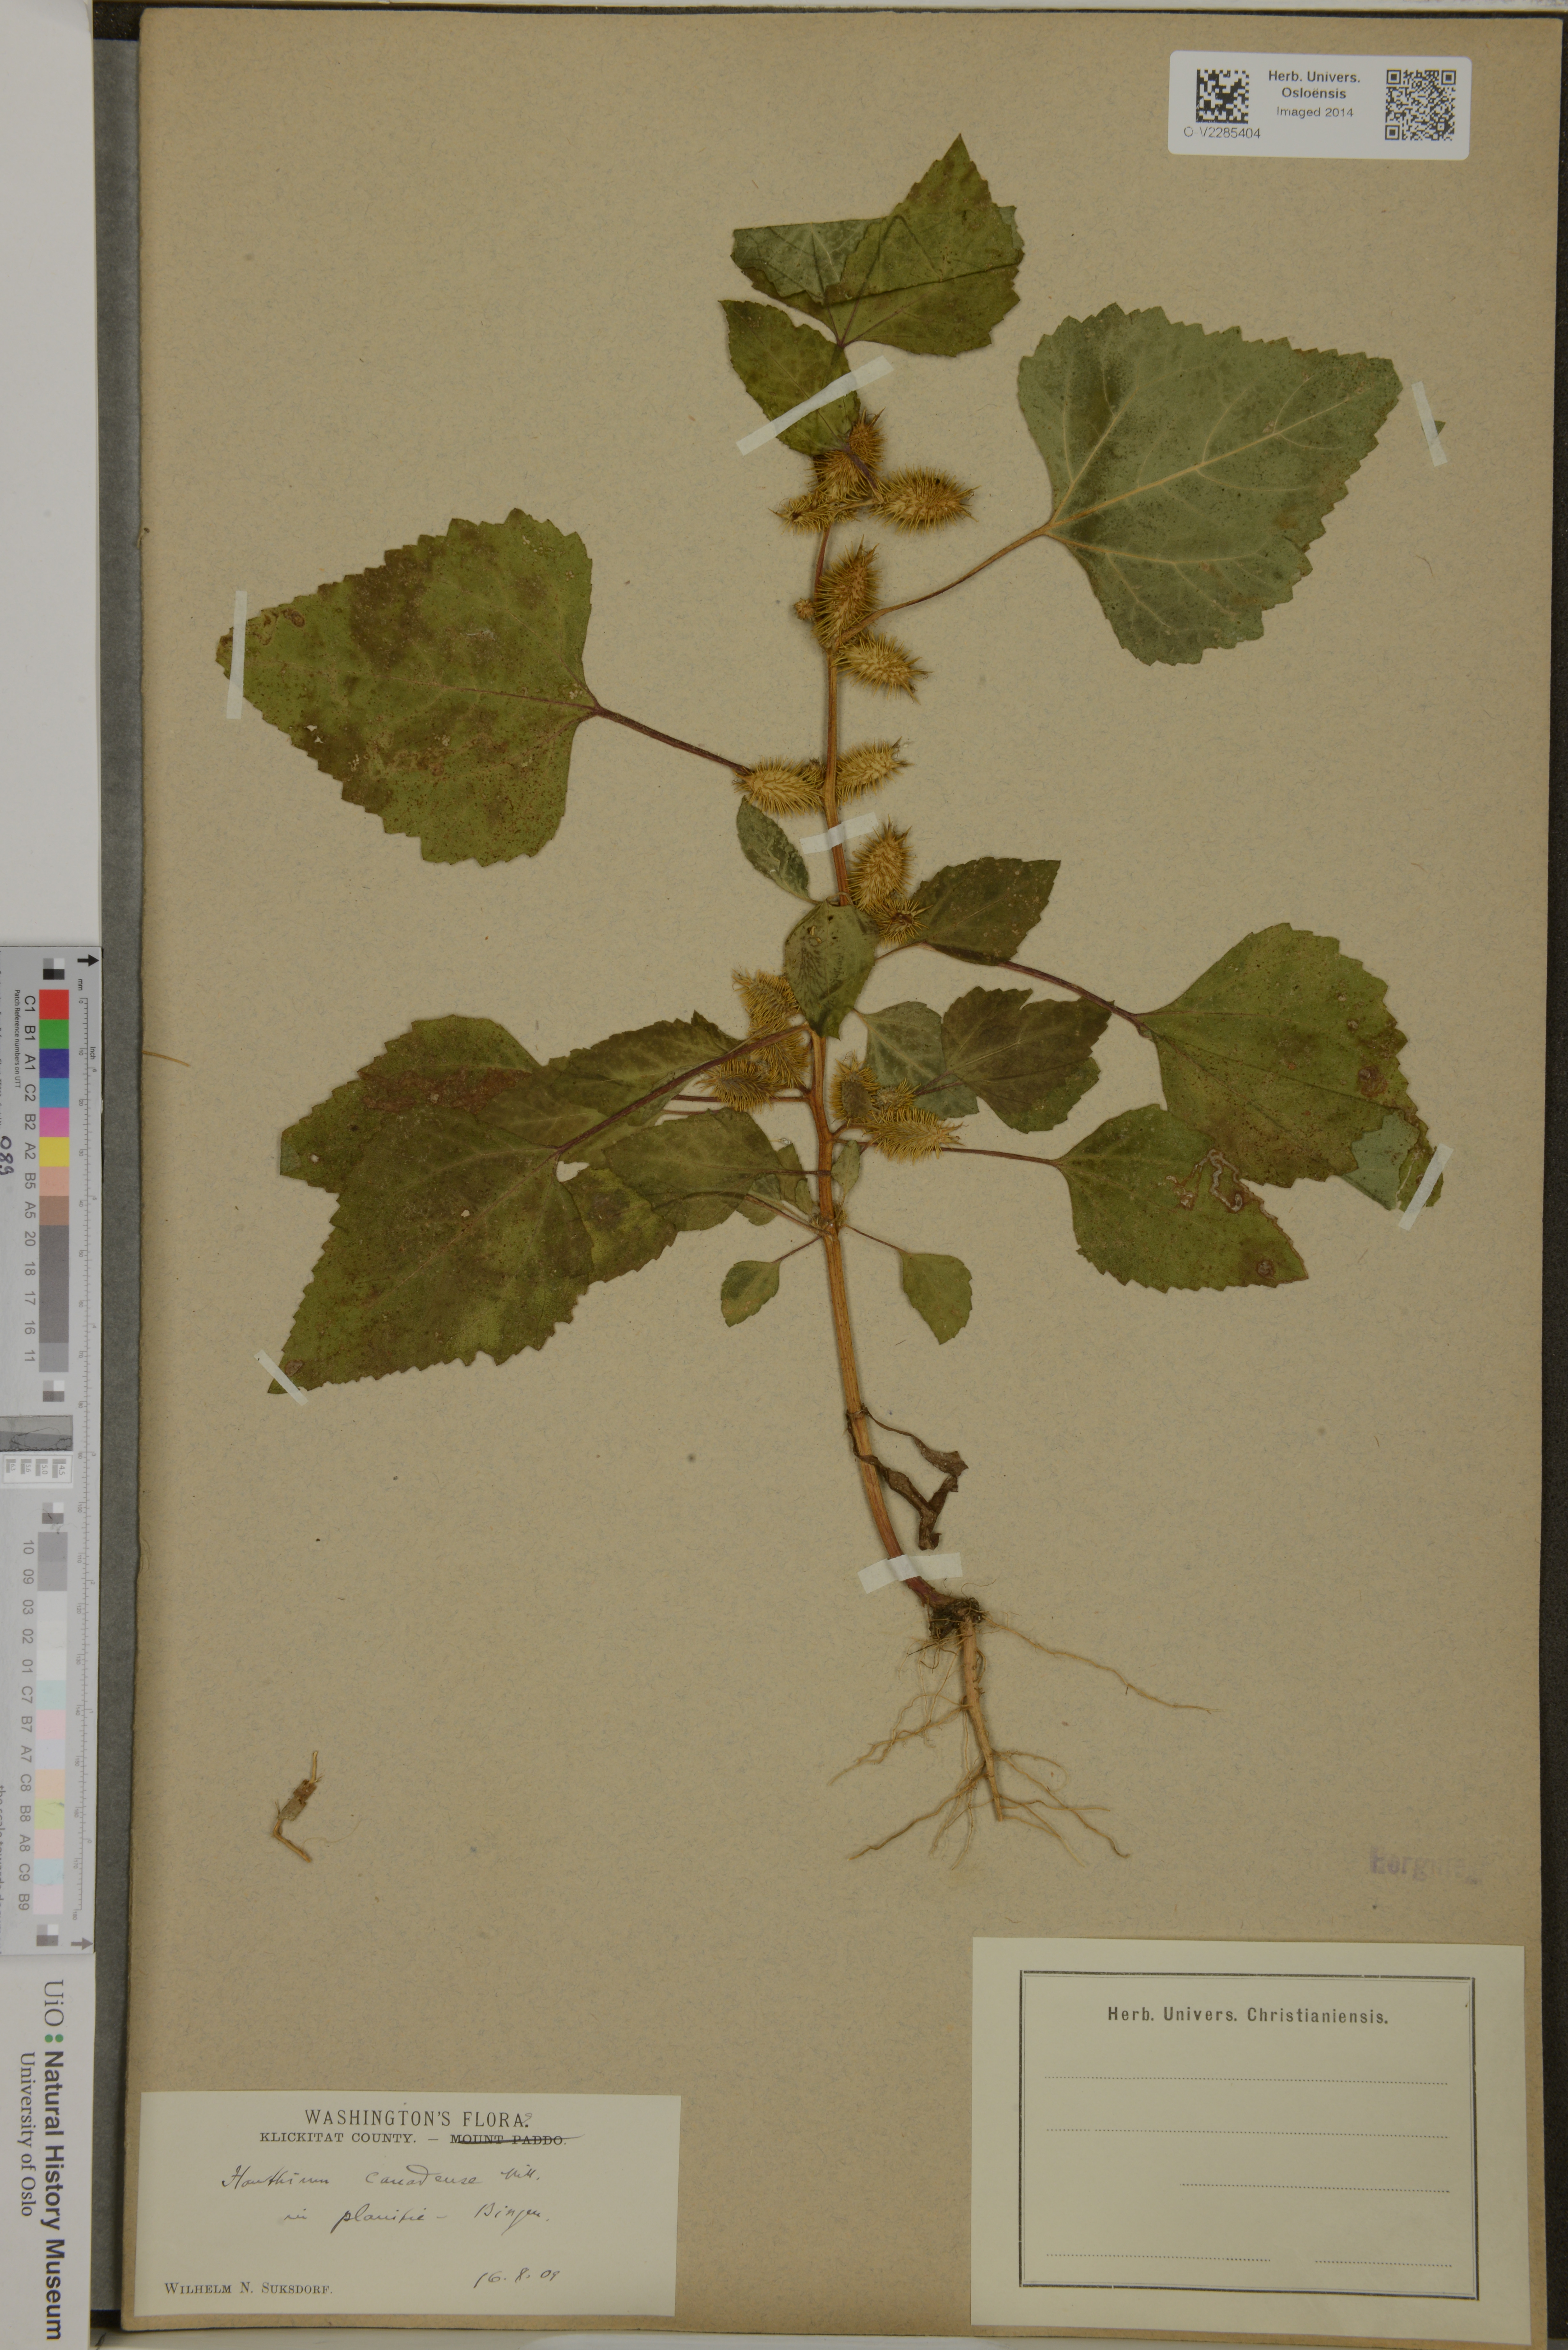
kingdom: Plantae
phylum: Tracheophyta
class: Magnoliopsida
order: Asterales
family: Asteraceae
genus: Xanthium
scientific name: Xanthium
